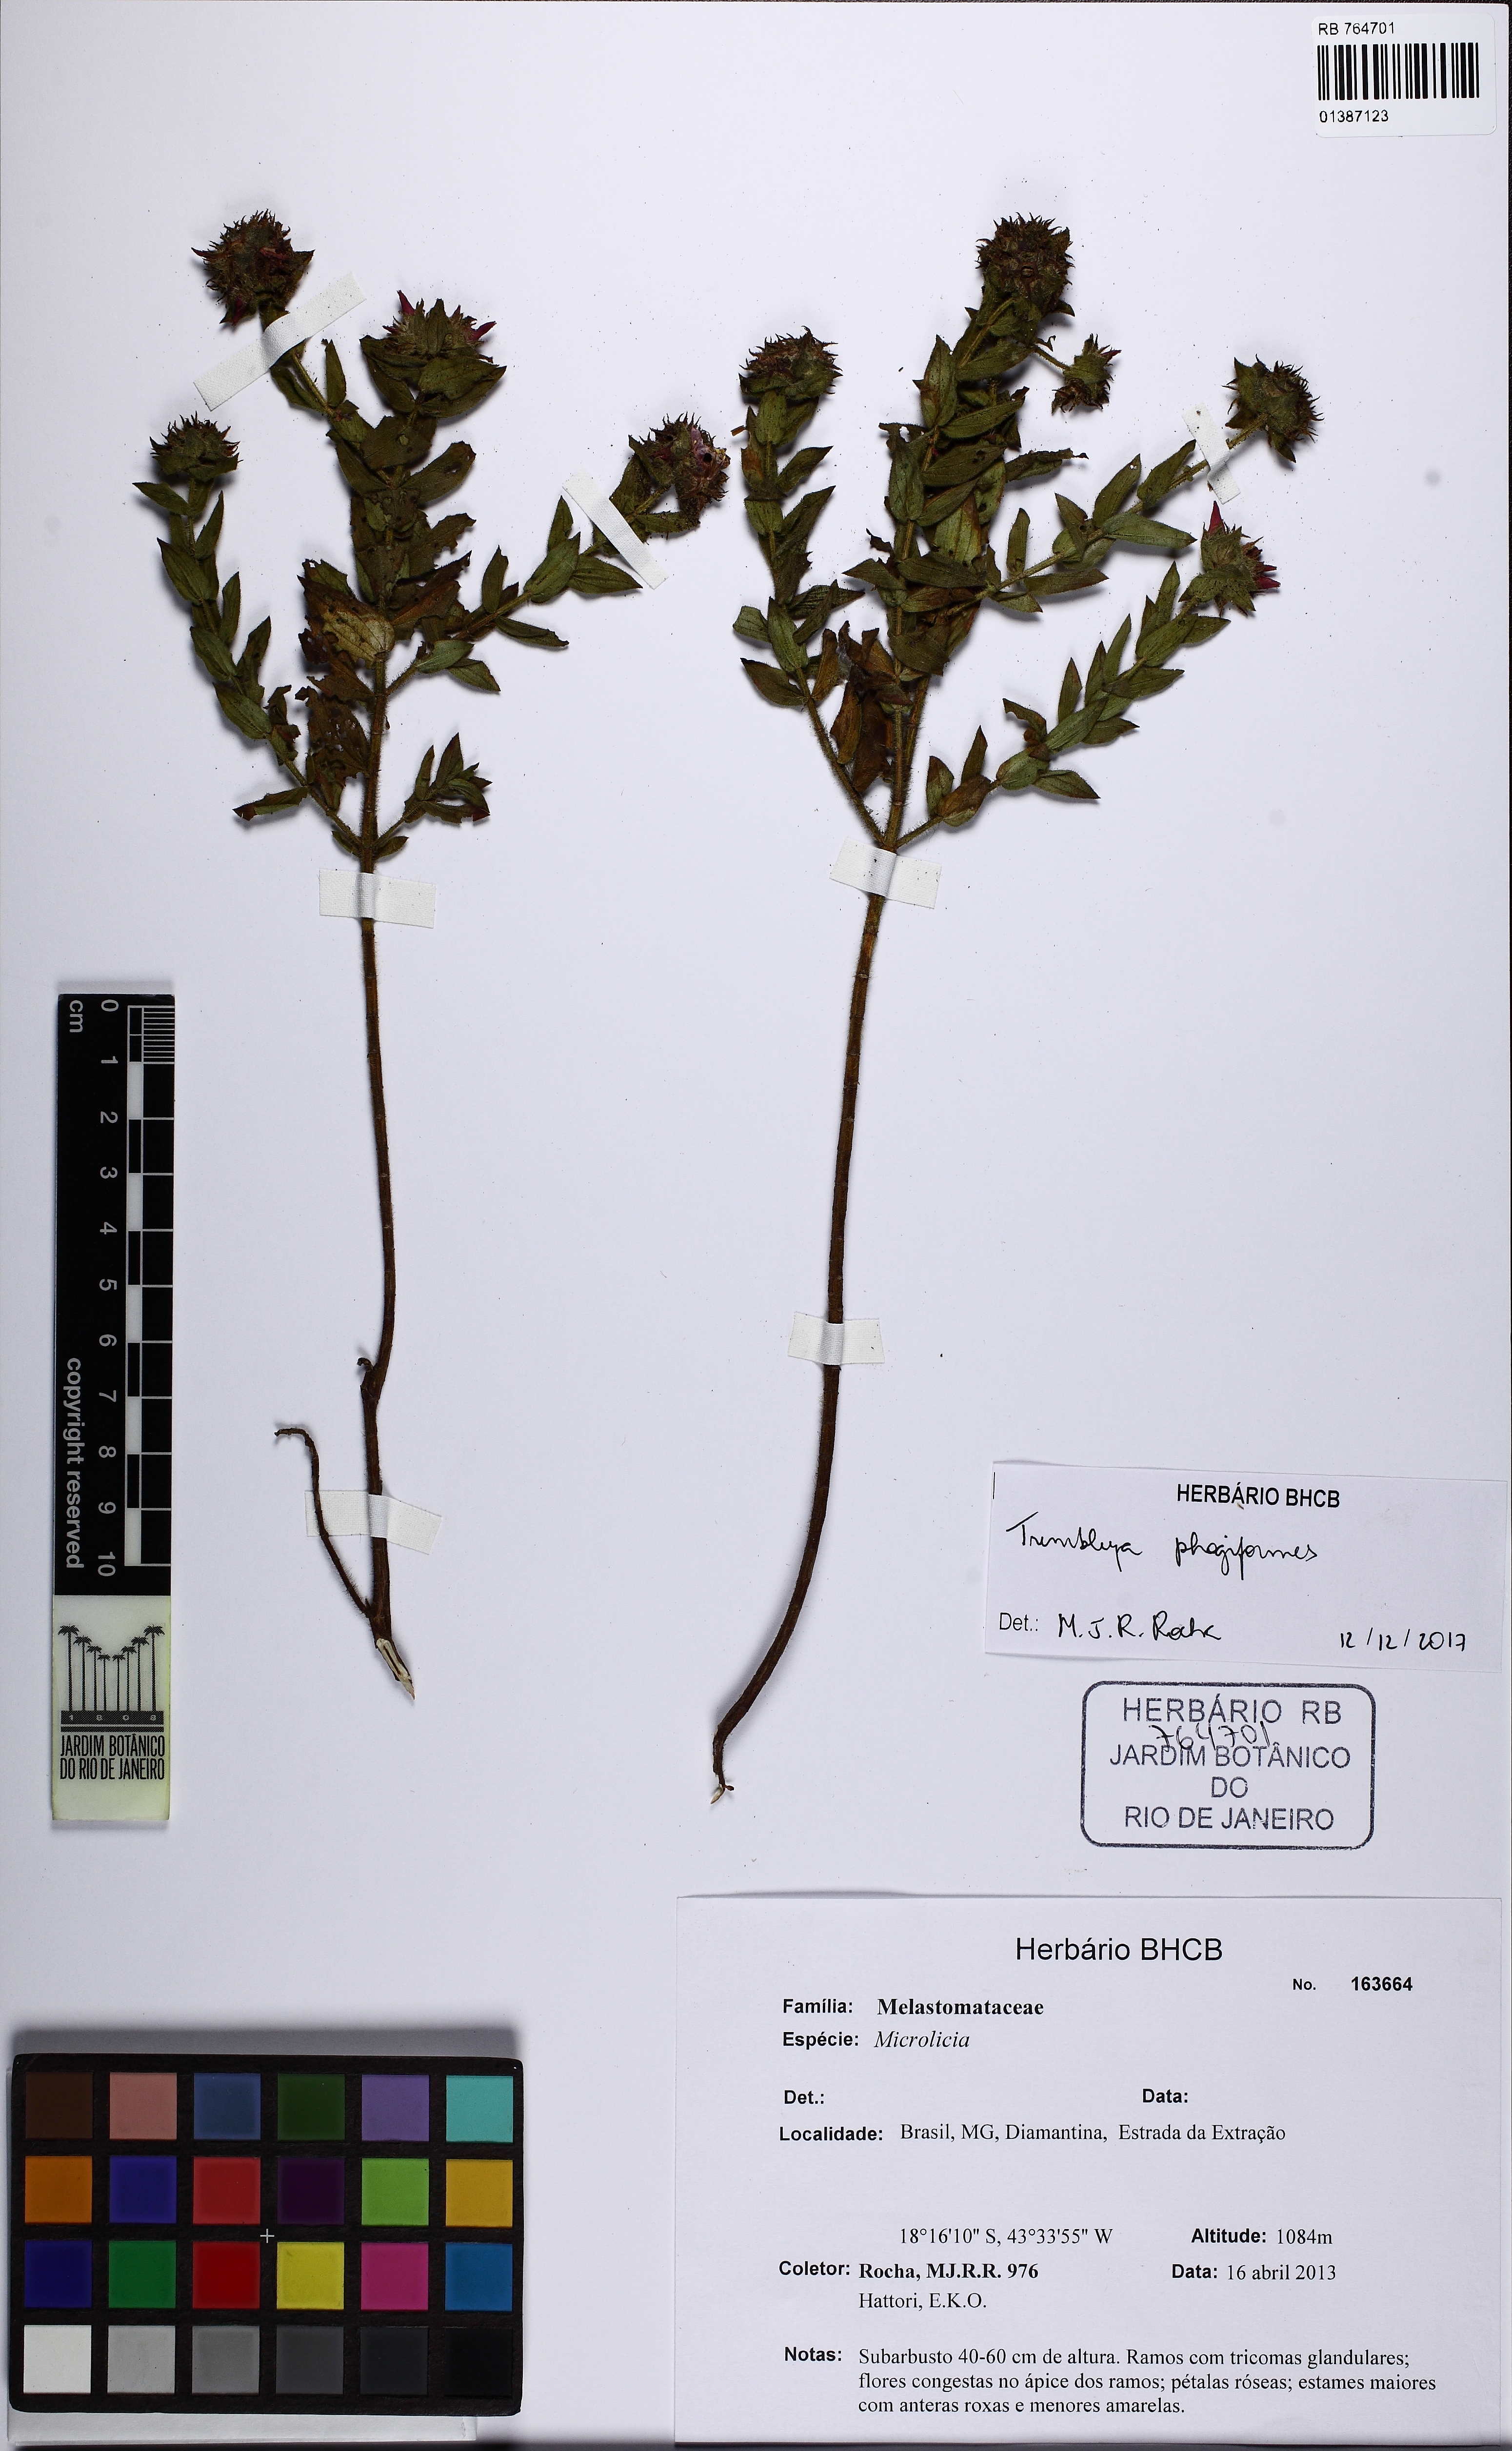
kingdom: Plantae
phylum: Tracheophyta
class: Magnoliopsida
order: Myrtales
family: Melastomataceae
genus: Microlicia
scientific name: Microlicia phlogiformis
